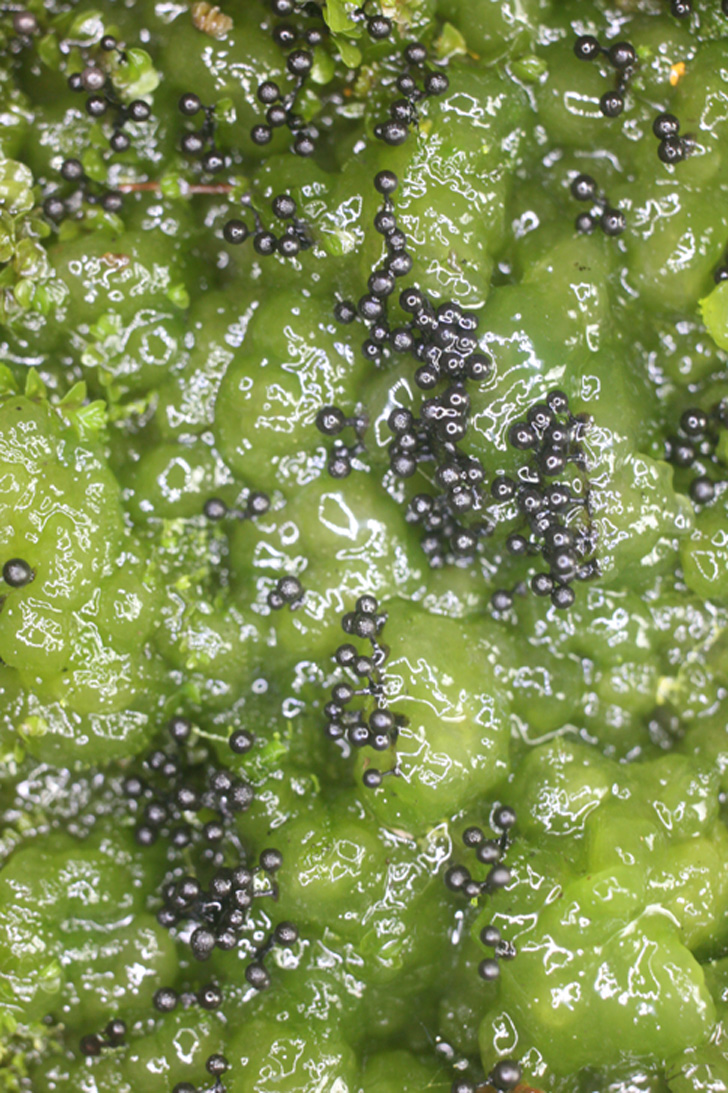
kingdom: Protozoa
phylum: Mycetozoa
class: Myxomycetes
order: Stemonitidales
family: Stemonitidaceae
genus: Lamproderma
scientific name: Lamproderma granulosum
